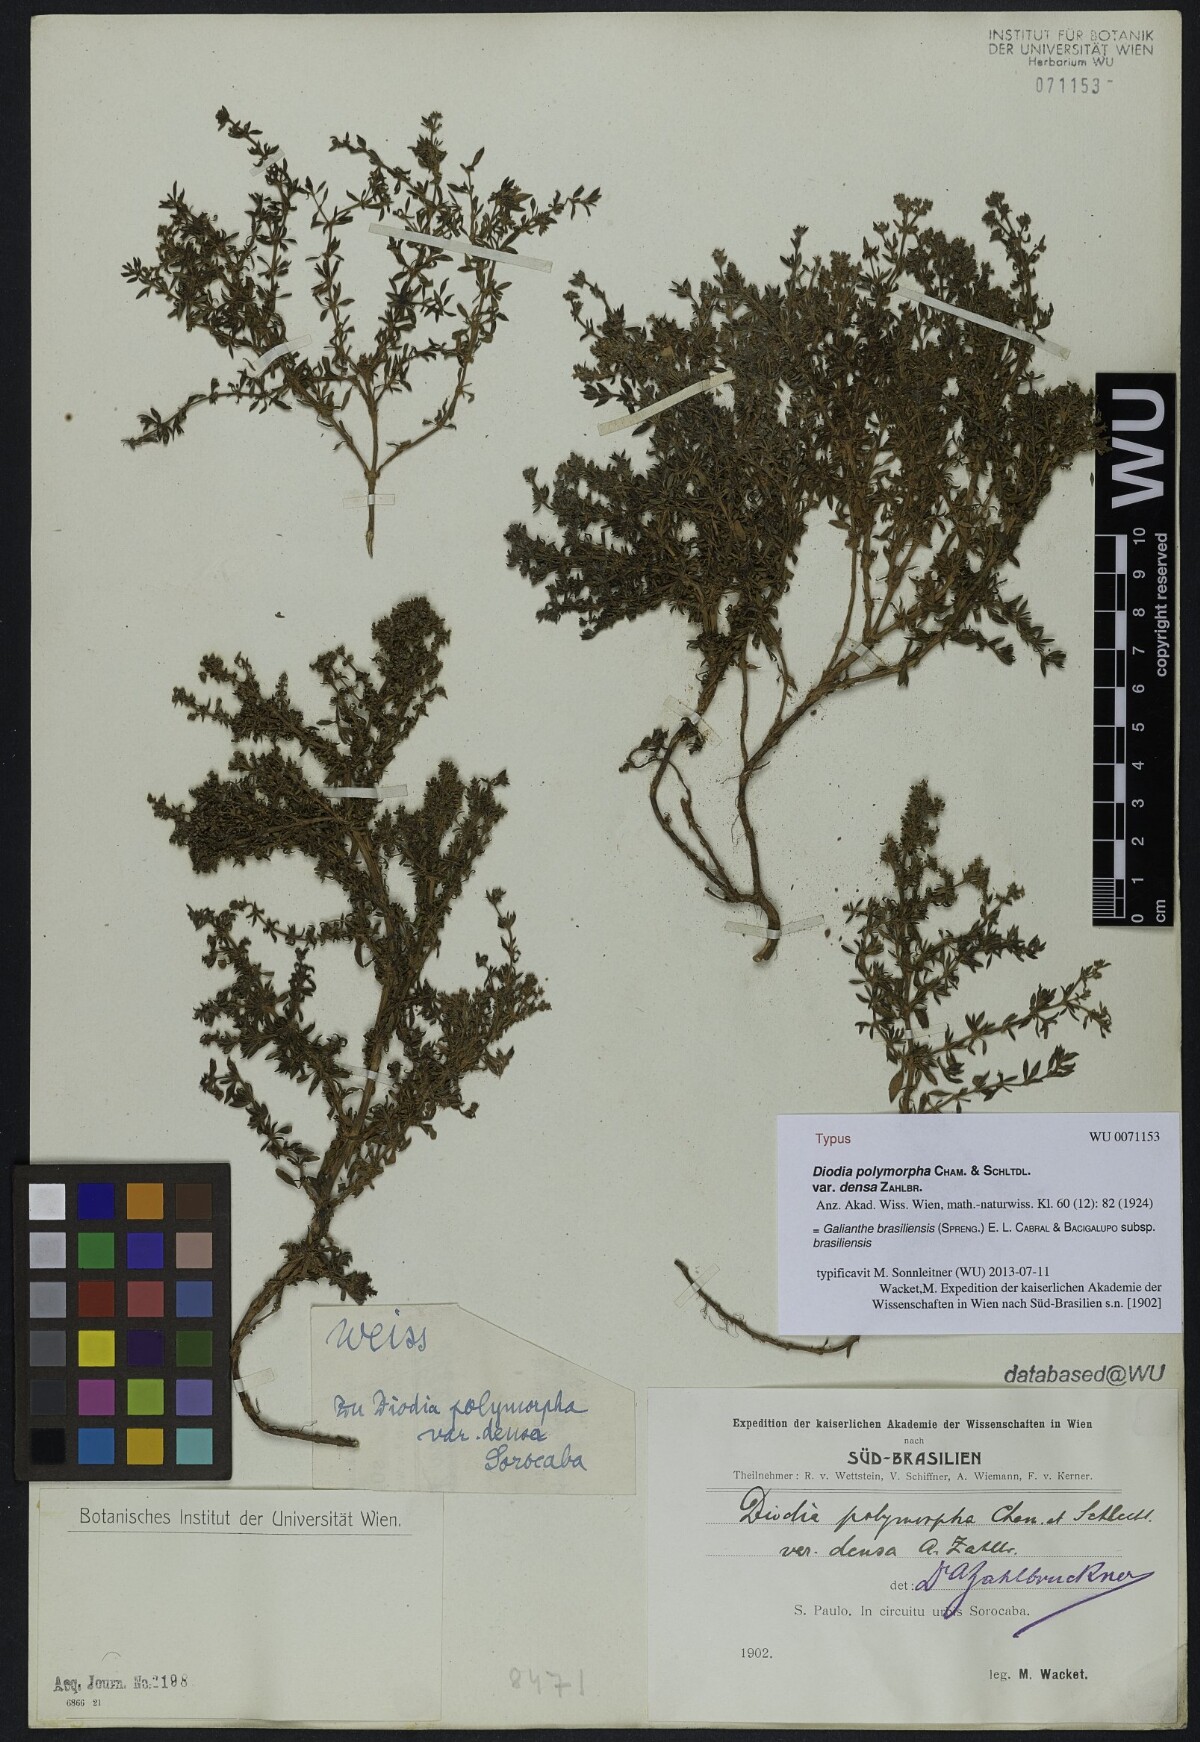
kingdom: Plantae
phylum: Tracheophyta
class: Magnoliopsida
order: Gentianales
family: Rubiaceae
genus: Galianthe
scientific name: Galianthe brasiliensis
